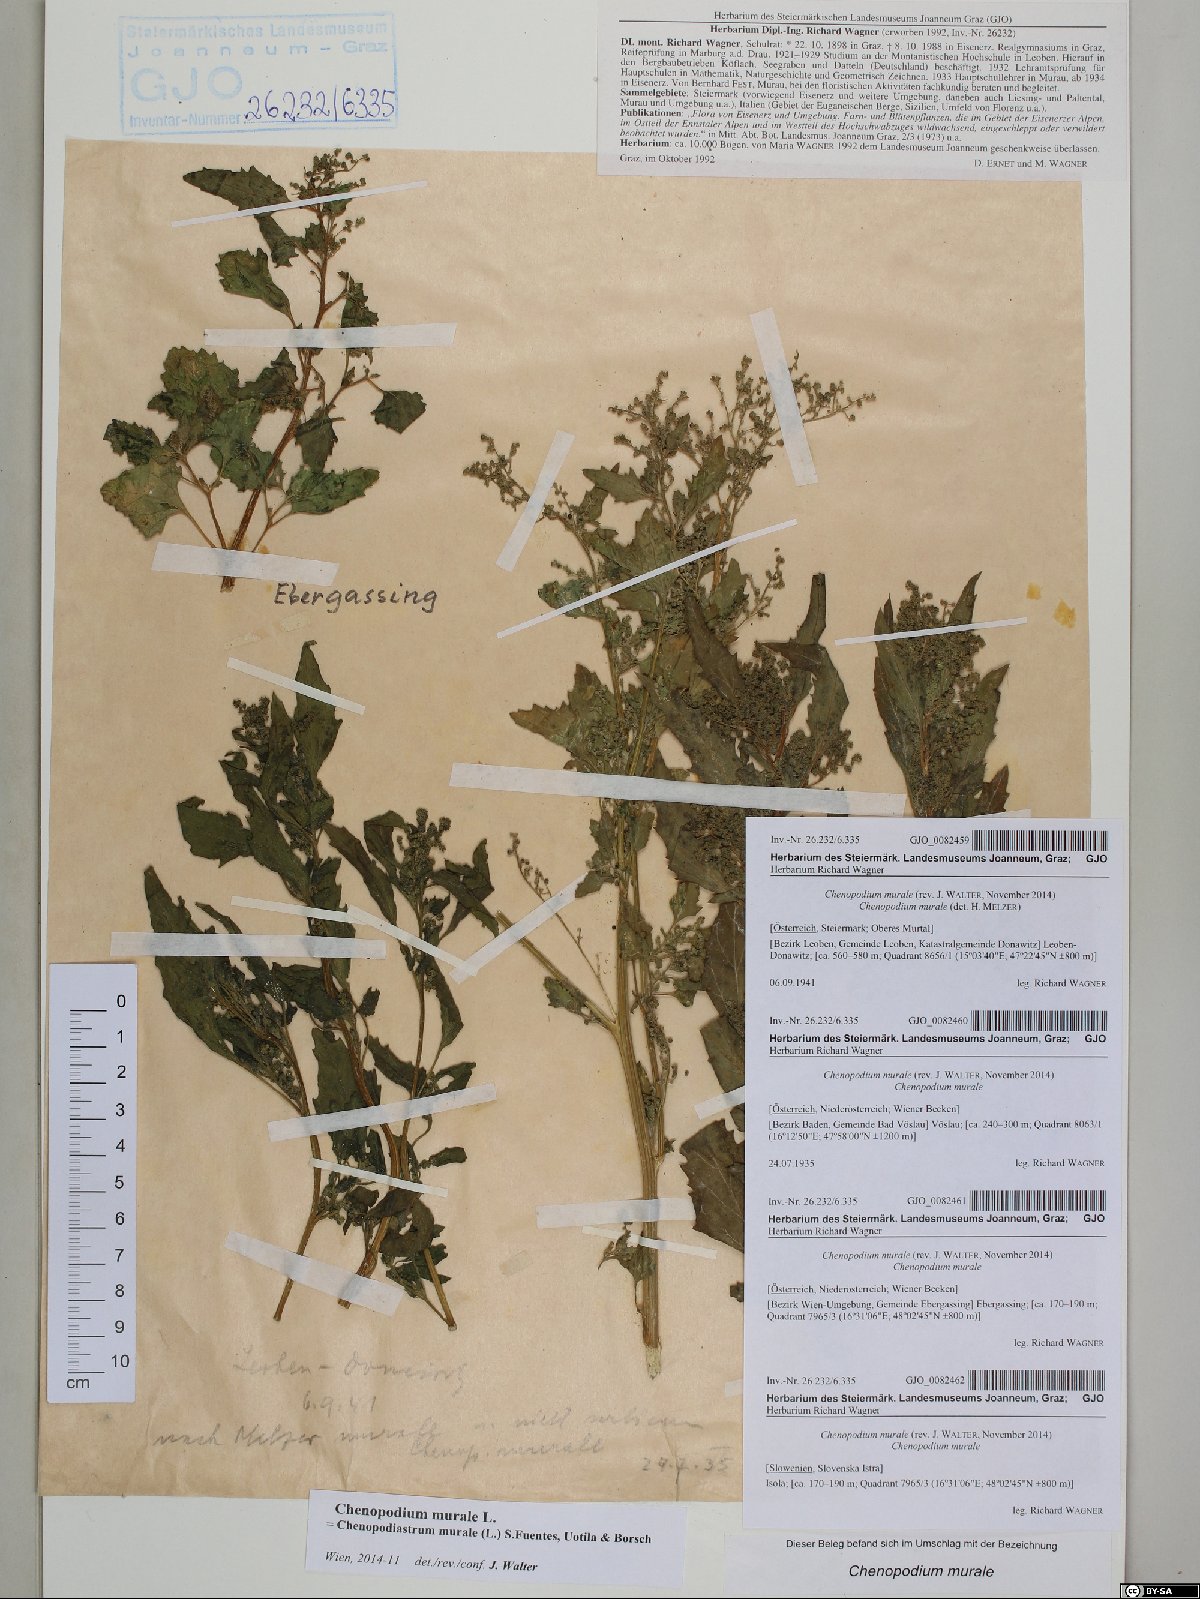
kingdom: Plantae
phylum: Tracheophyta
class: Magnoliopsida
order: Caryophyllales
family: Amaranthaceae
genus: Chenopodiastrum
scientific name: Chenopodiastrum murale
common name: Sowbane
